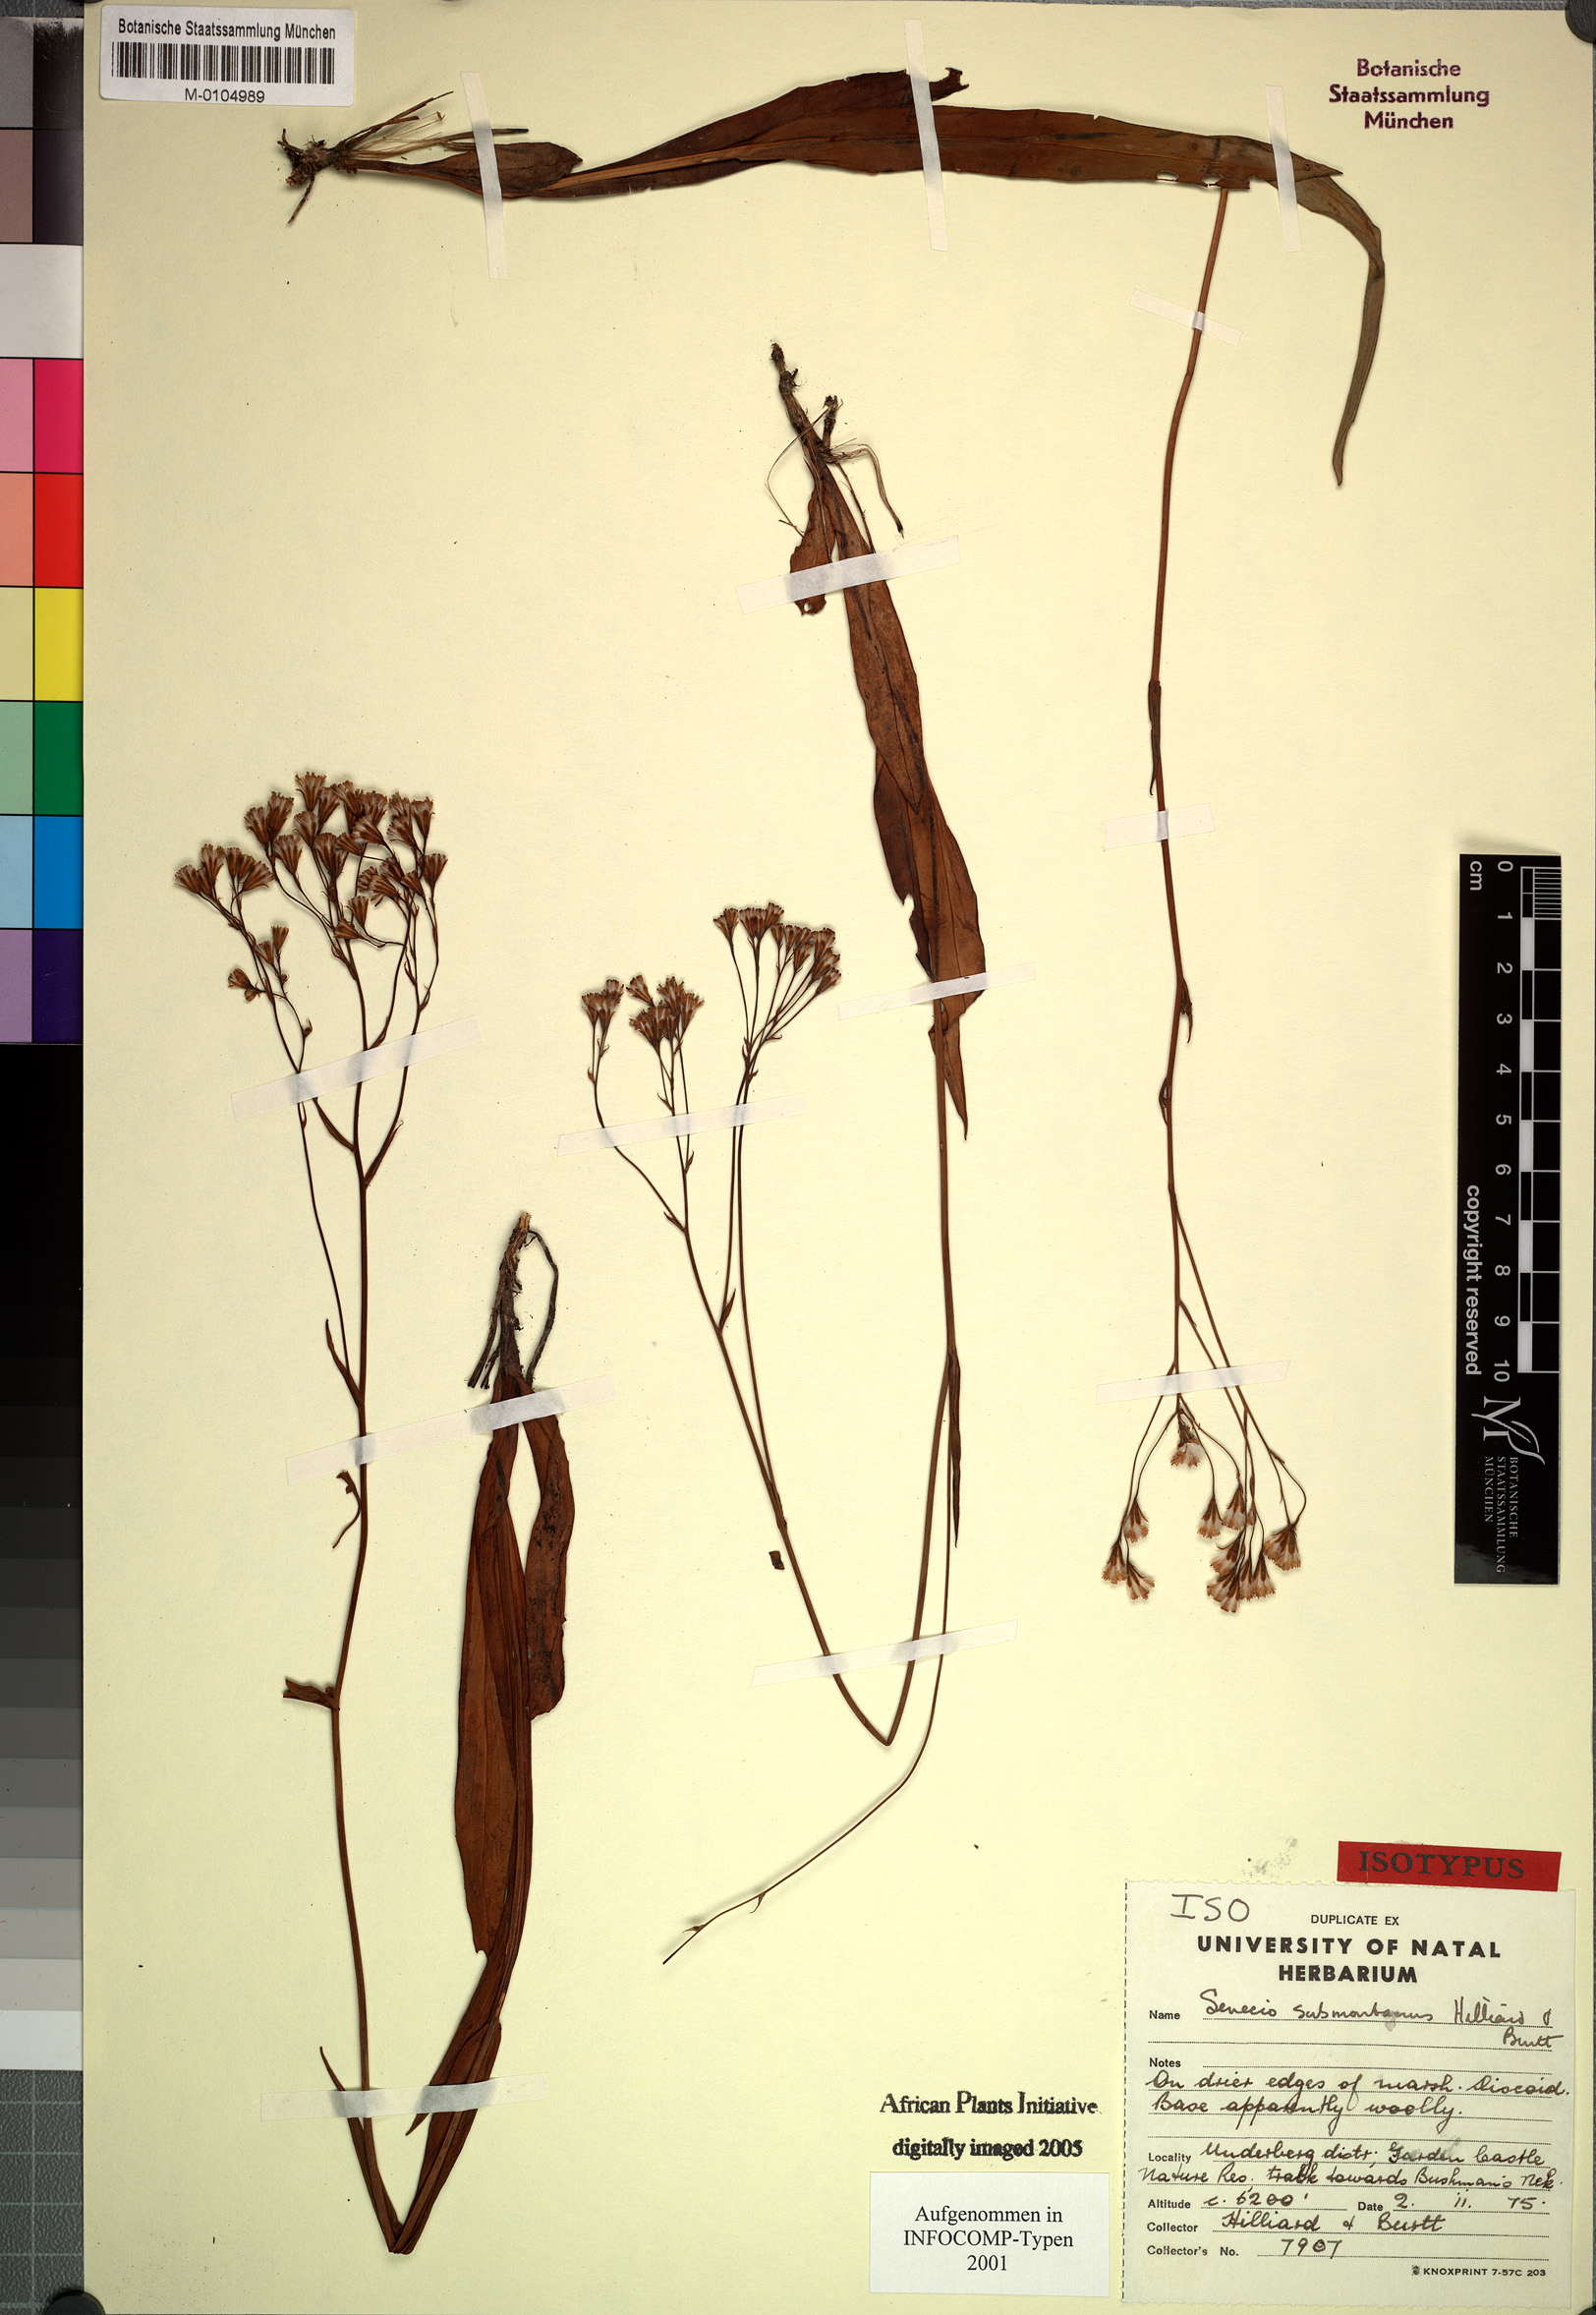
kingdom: Plantae
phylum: Tracheophyta
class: Magnoliopsida
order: Asterales
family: Asteraceae
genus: Senecio
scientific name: Senecio submontanus
